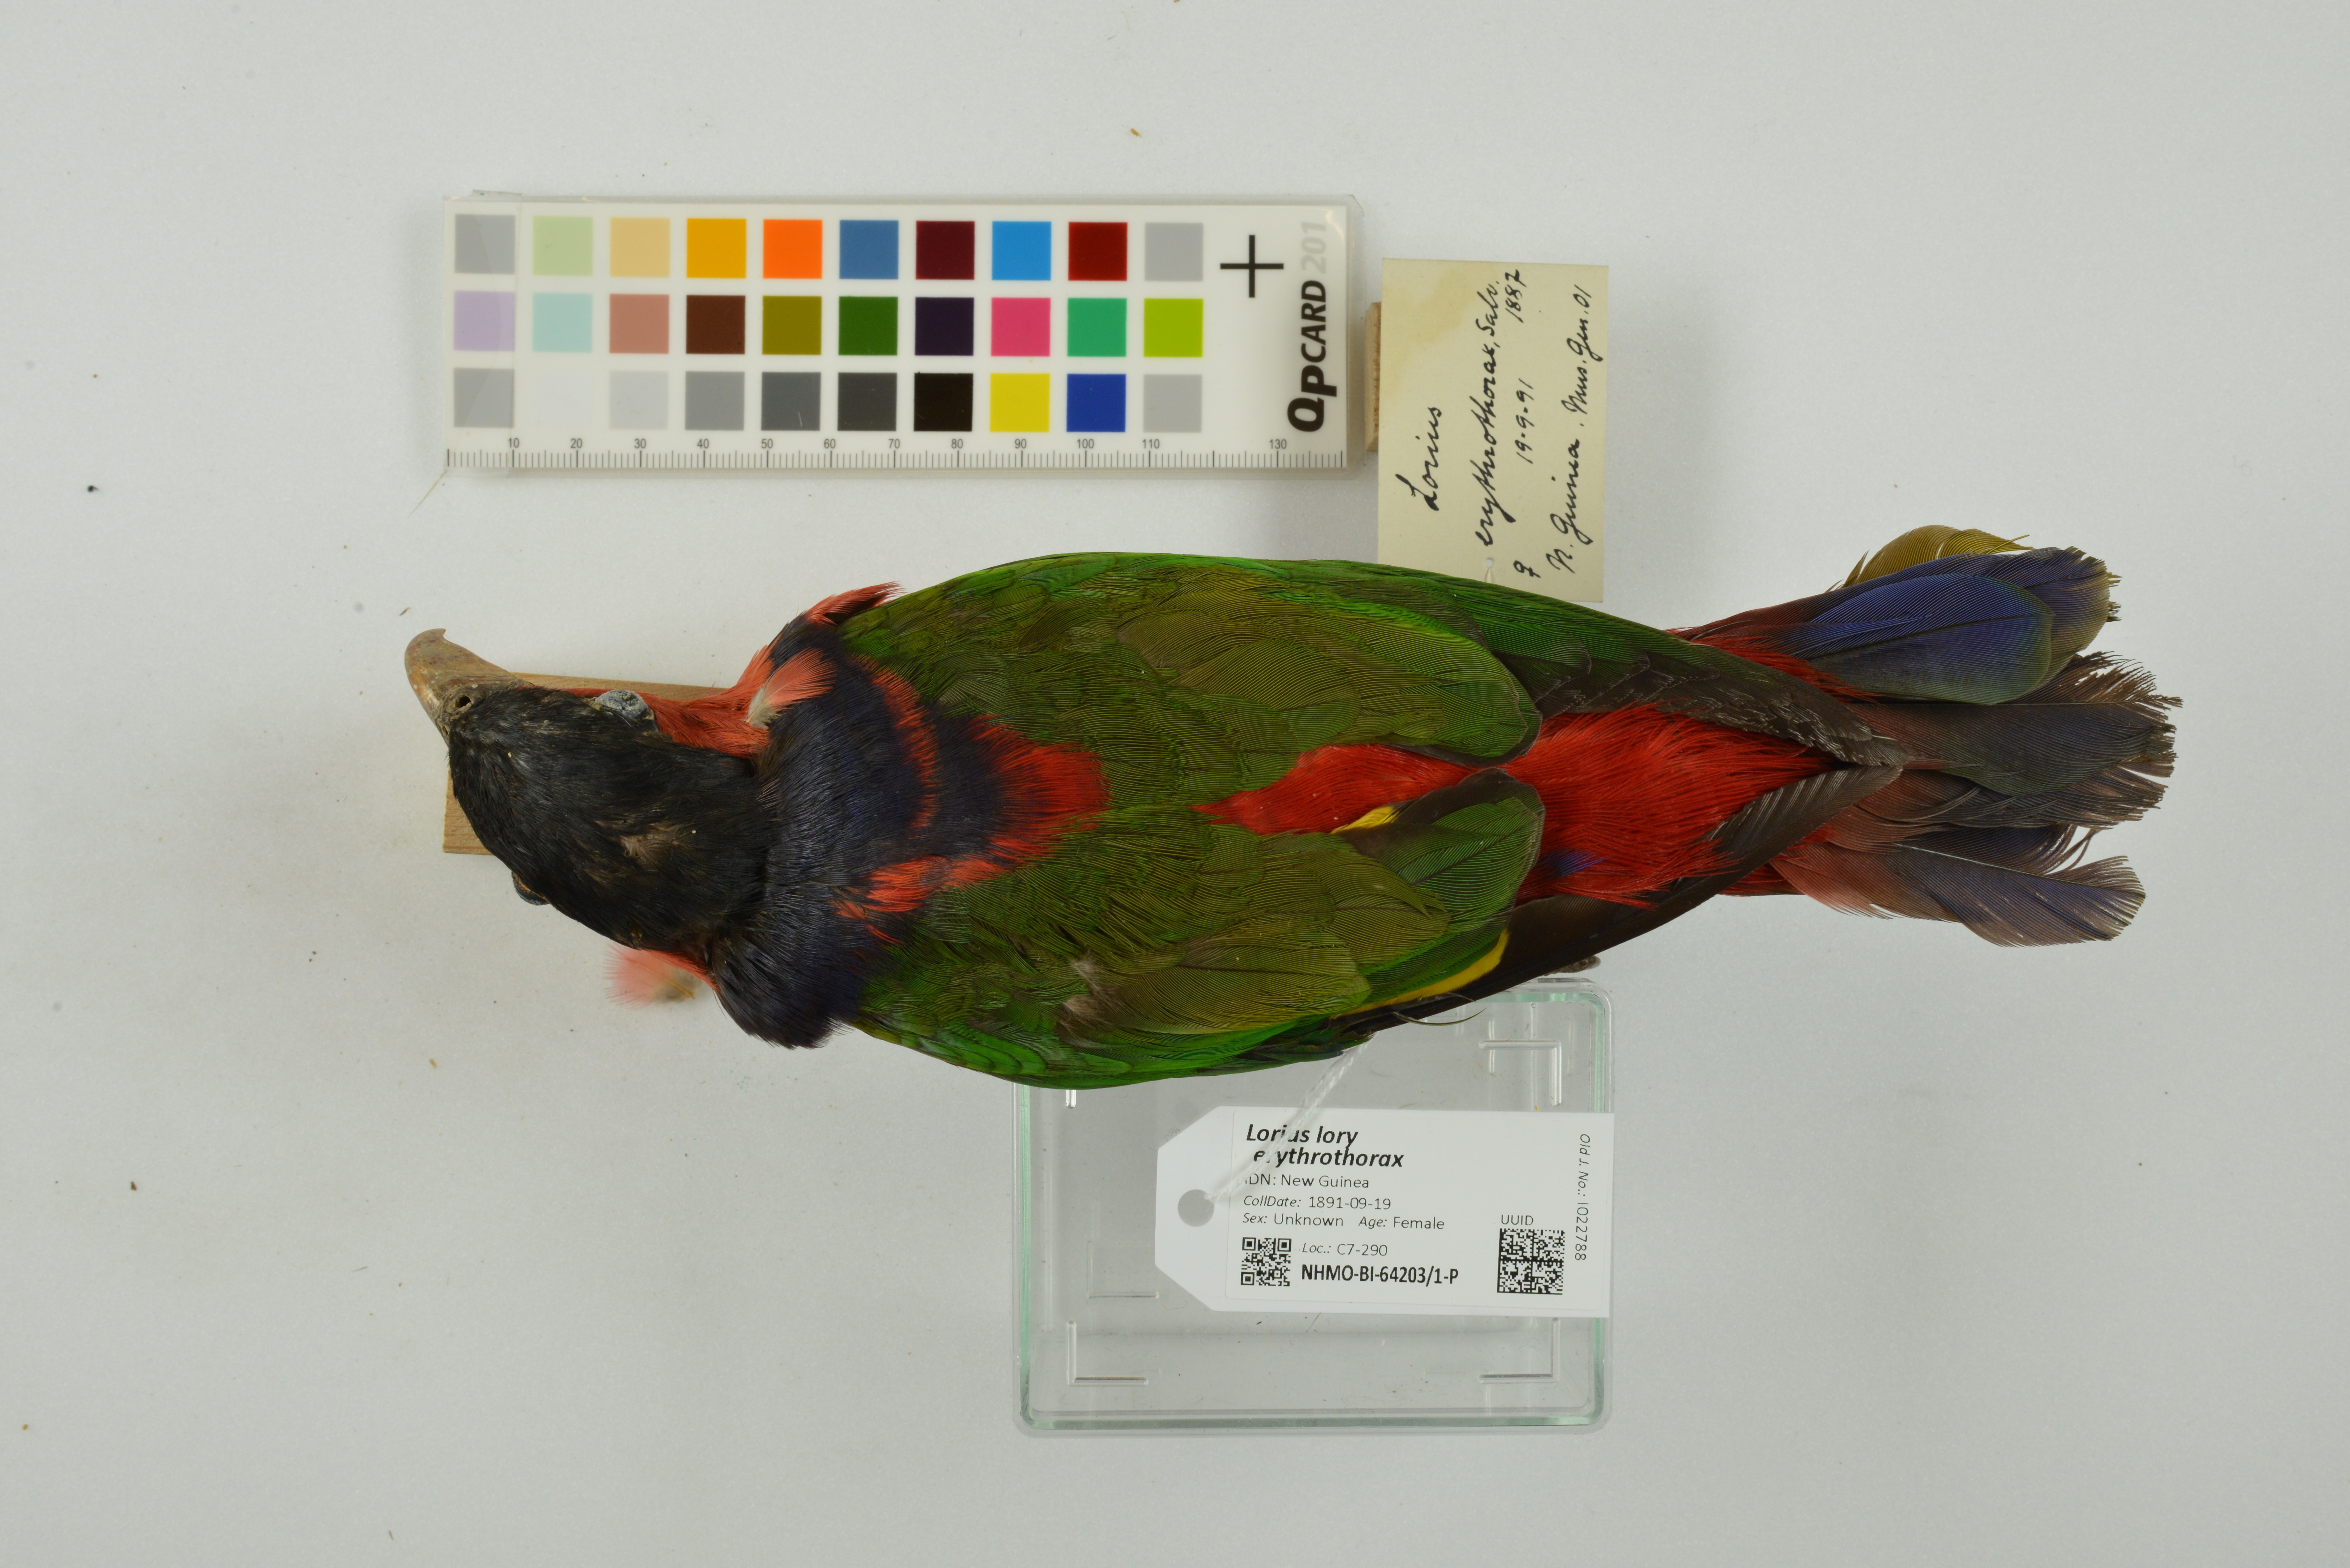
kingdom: Animalia
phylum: Chordata
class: Aves
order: Psittaciformes
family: Psittacidae
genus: Lorius
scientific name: Lorius lory
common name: Black-capped lory
